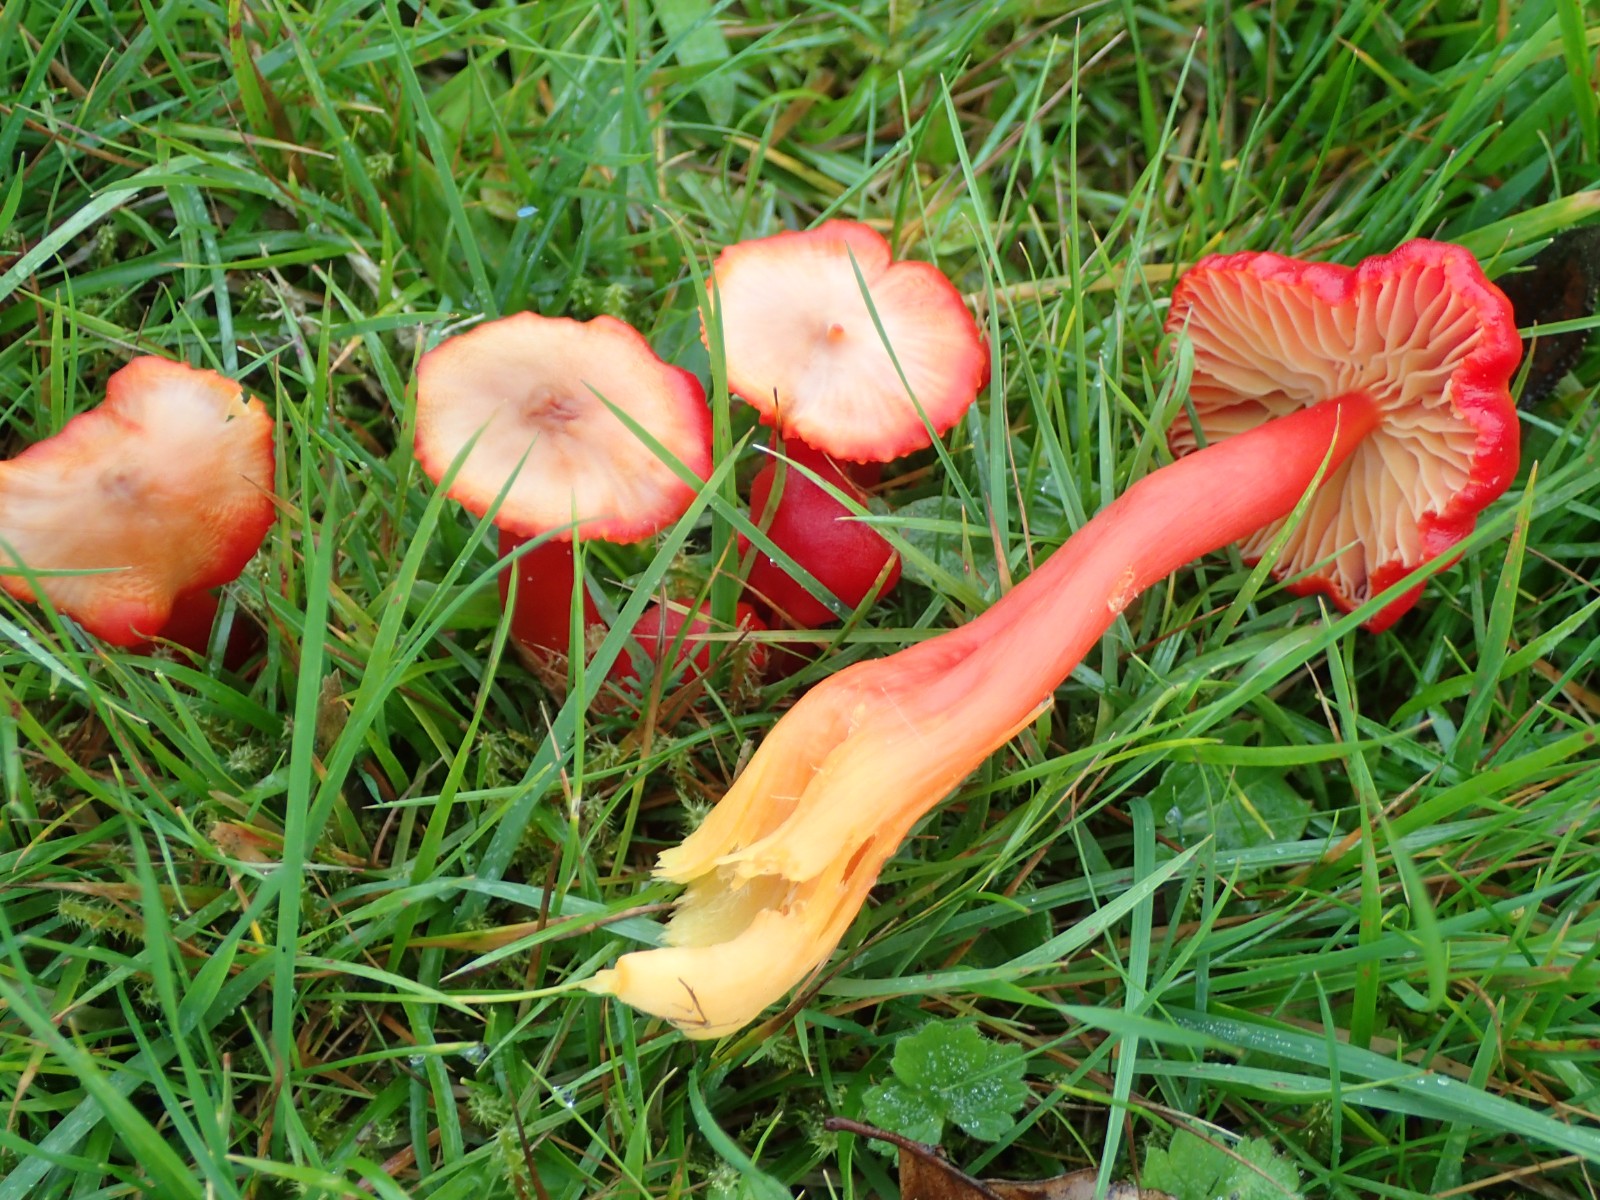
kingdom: Fungi
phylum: Basidiomycota
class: Agaricomycetes
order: Agaricales
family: Hygrophoraceae
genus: Hygrocybe
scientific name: Hygrocybe coccinea
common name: cinnober-vokshat
